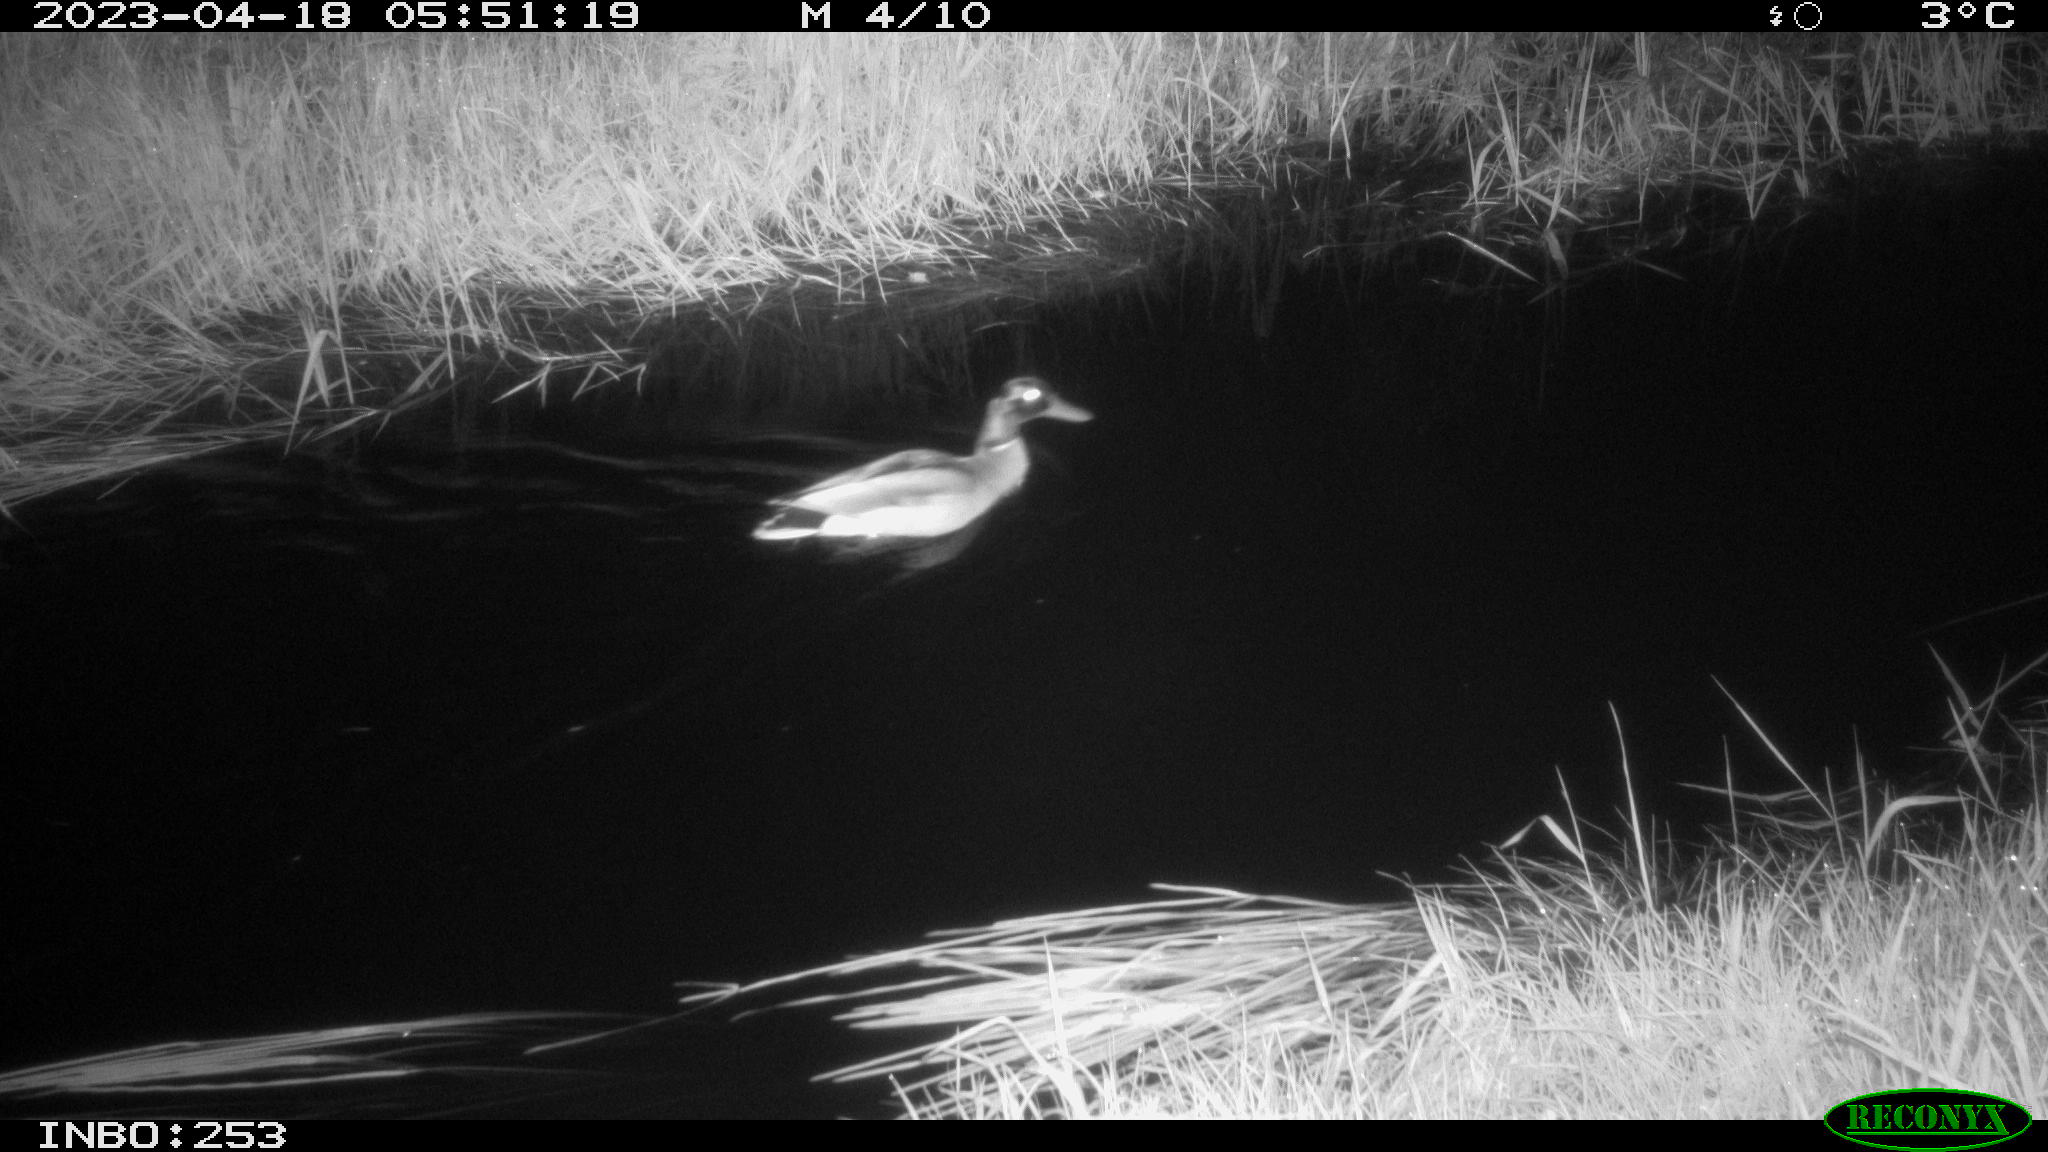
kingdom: Animalia
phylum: Chordata
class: Aves
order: Anseriformes
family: Anatidae
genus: Anas
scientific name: Anas
